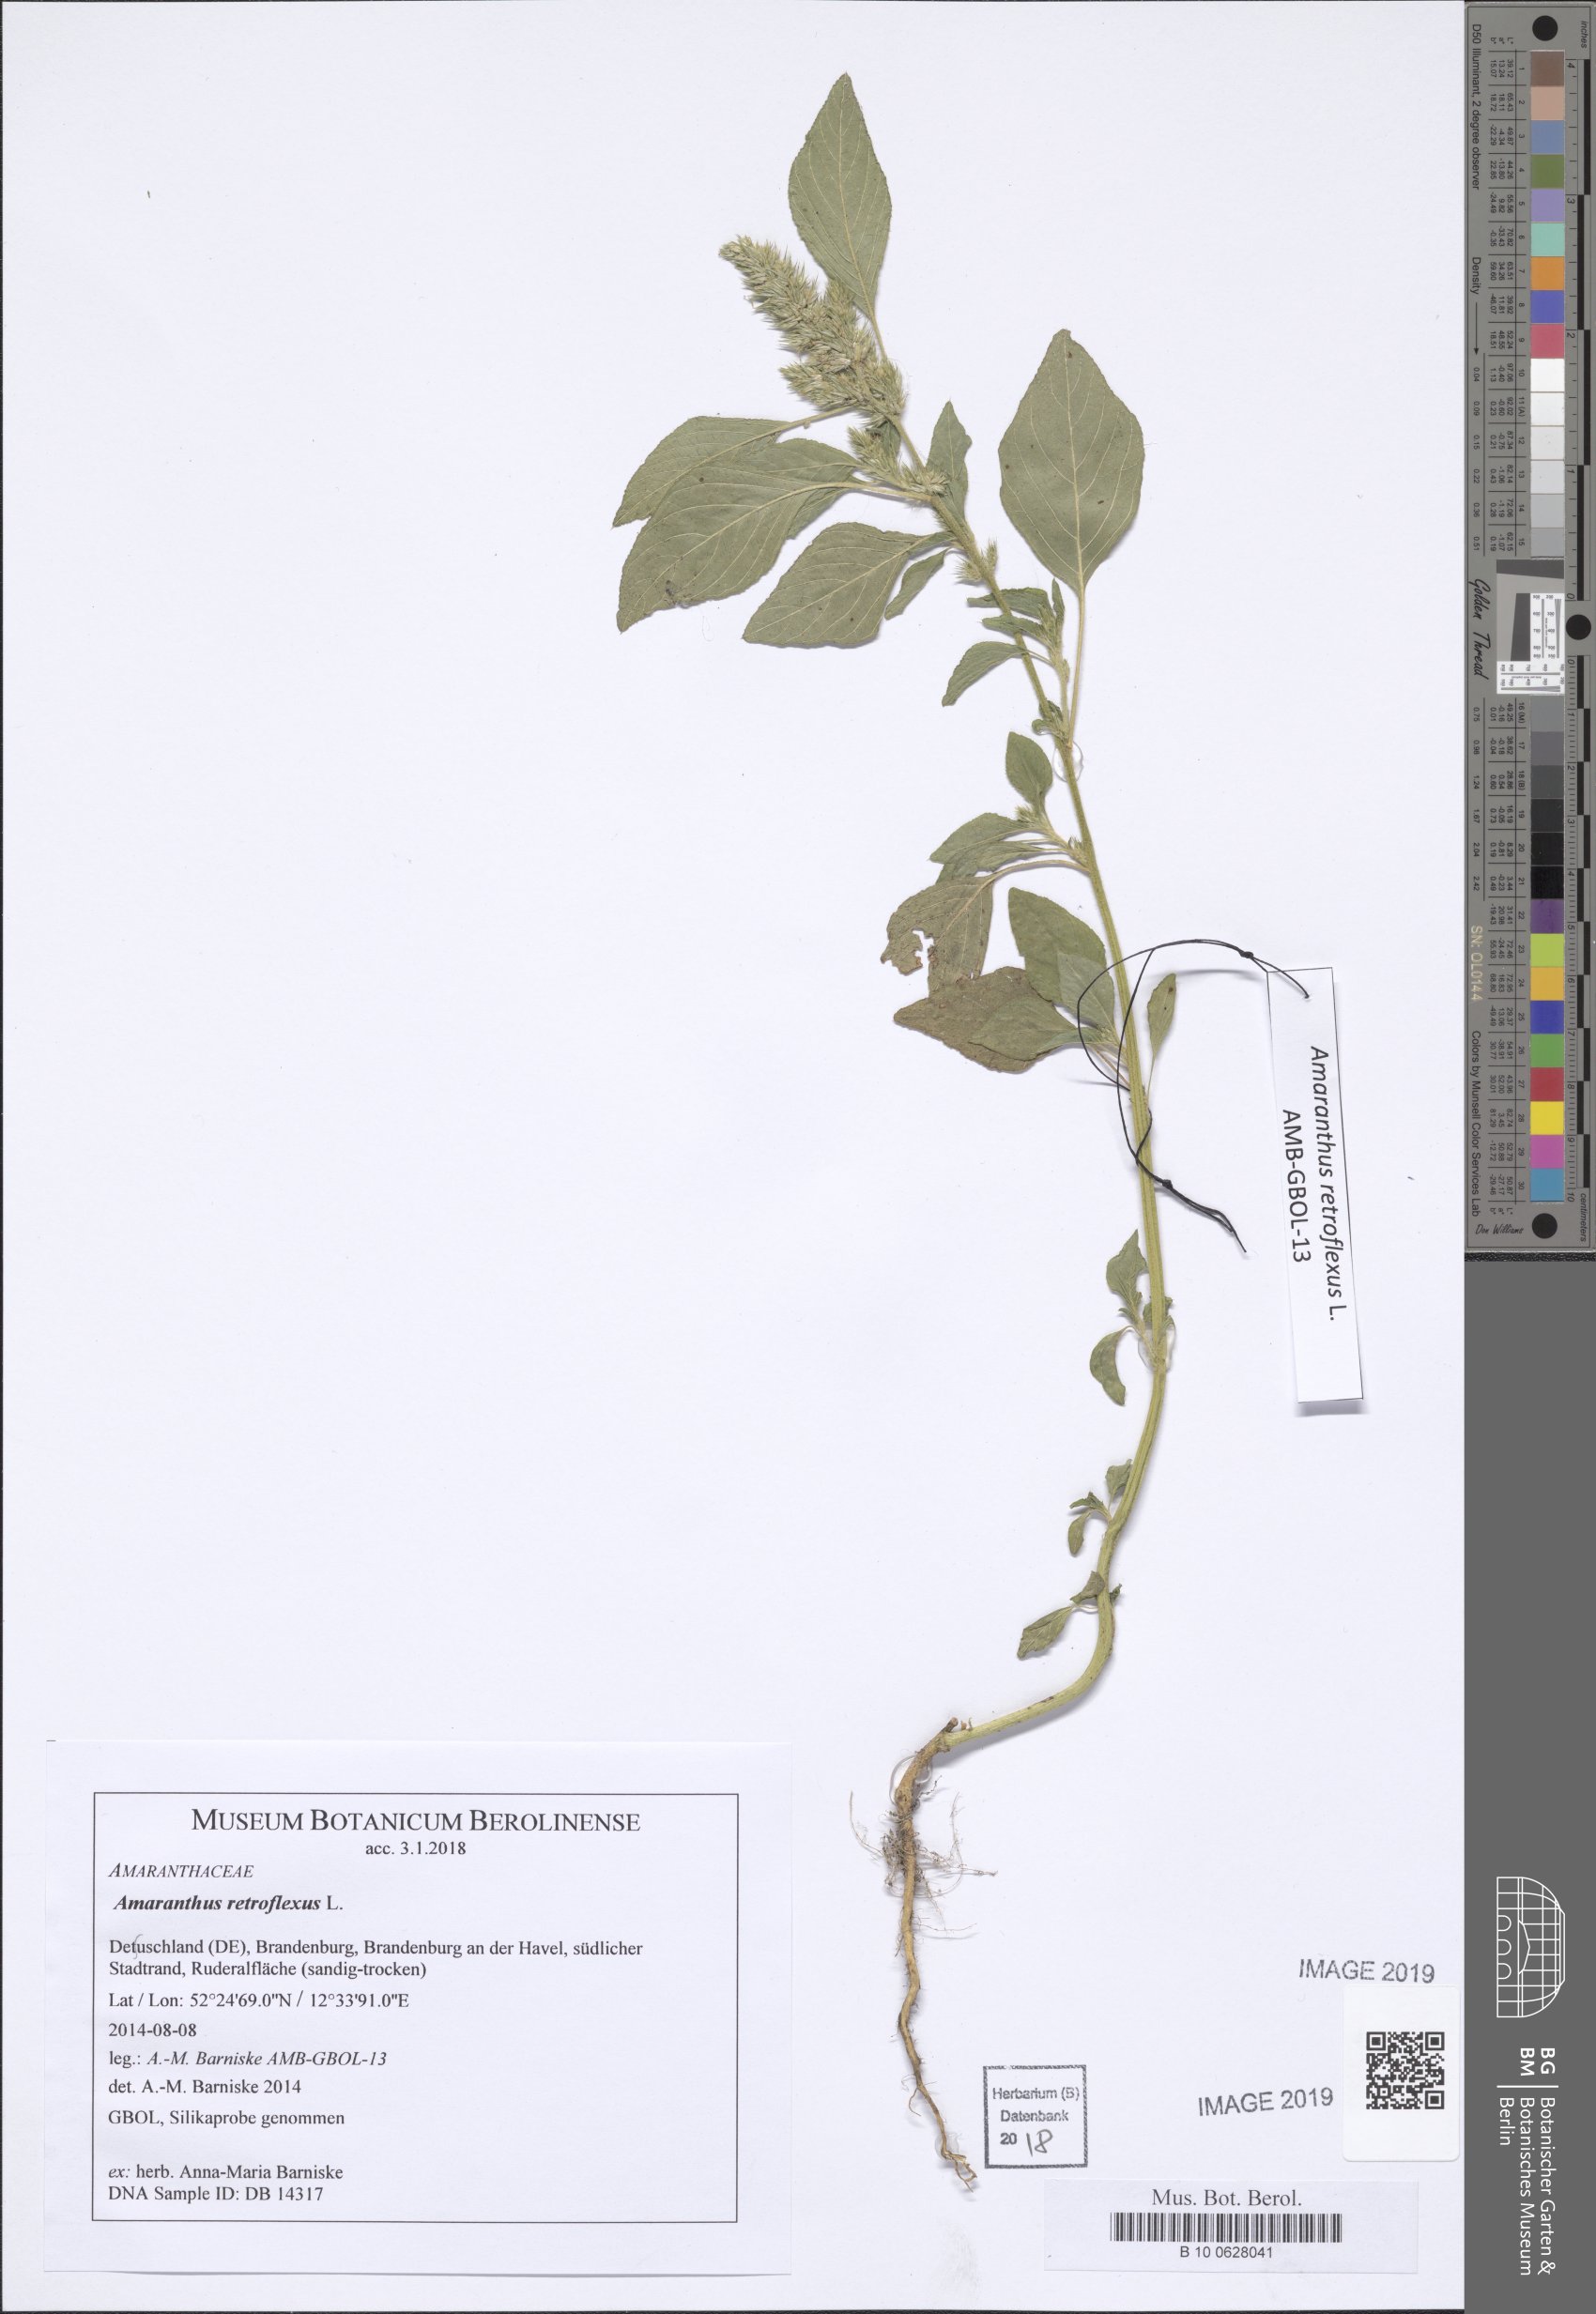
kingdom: Plantae
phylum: Tracheophyta
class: Magnoliopsida
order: Caryophyllales
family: Amaranthaceae
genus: Amaranthus
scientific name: Amaranthus retroflexus
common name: Redroot amaranth
